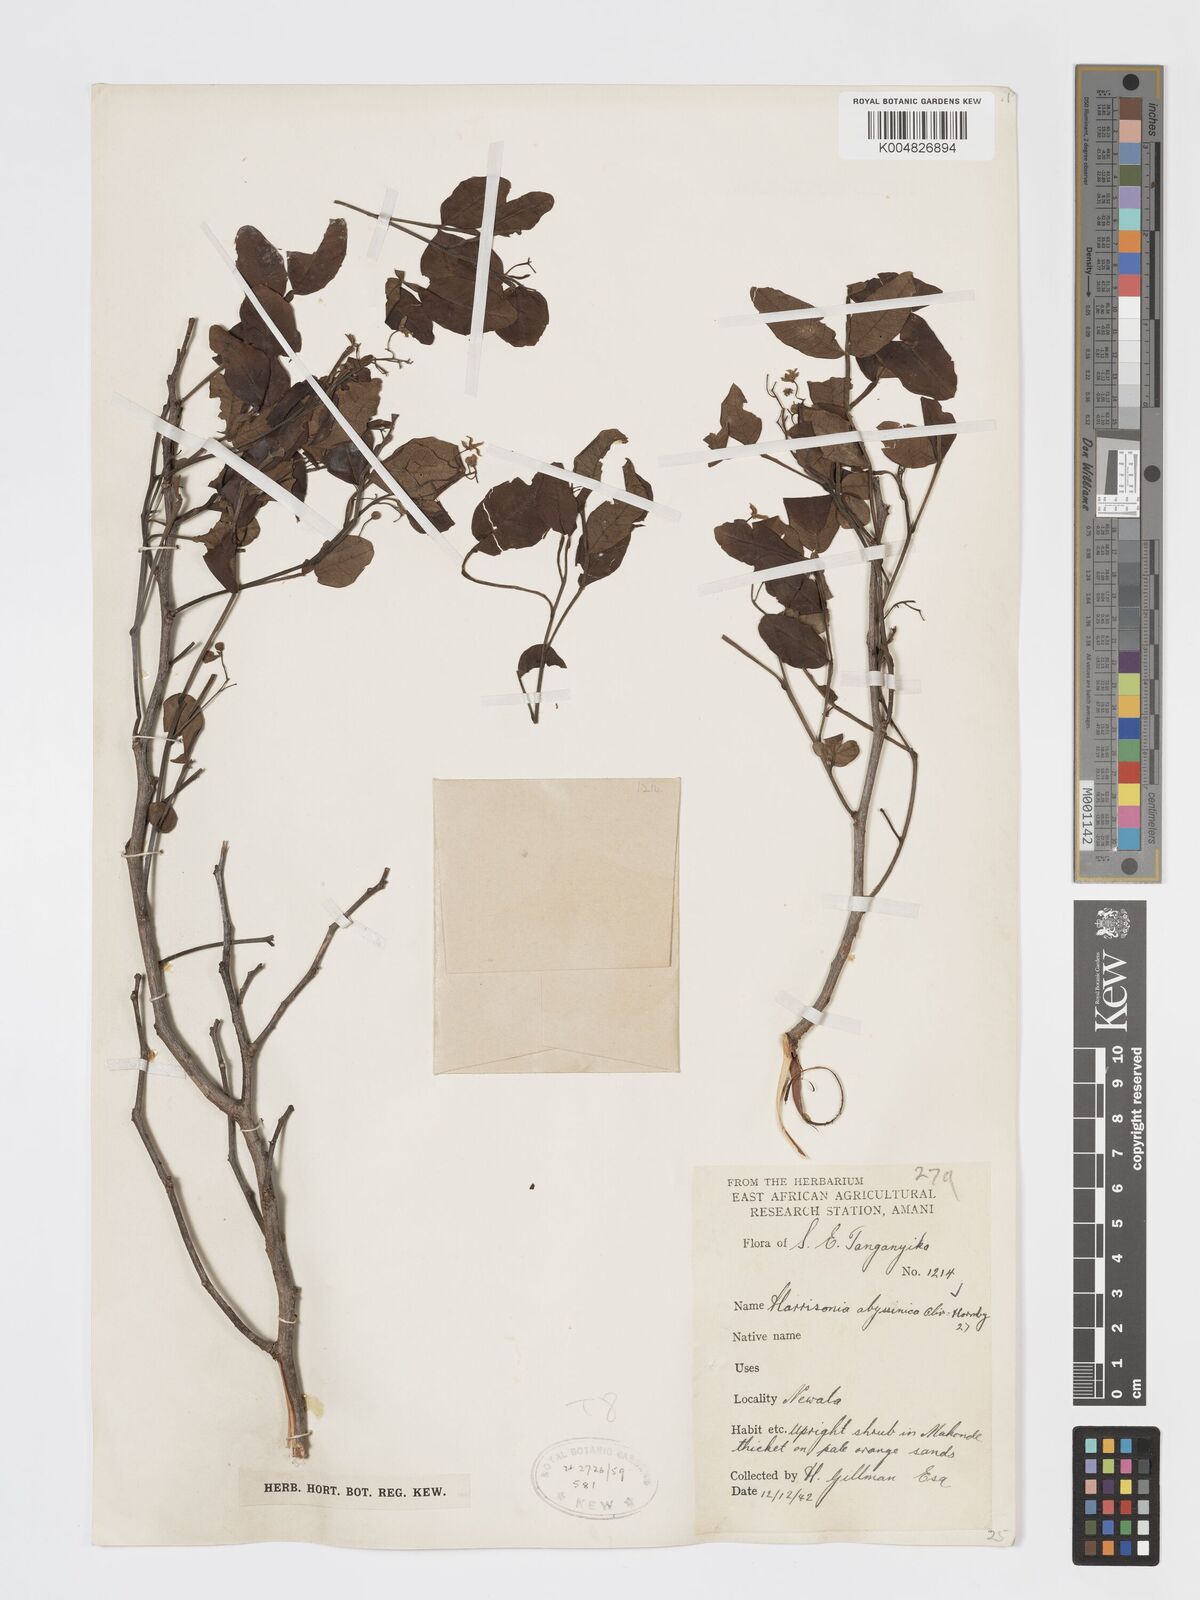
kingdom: Plantae
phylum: Tracheophyta
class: Magnoliopsida
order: Sapindales
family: Rutaceae
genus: Harrisonia
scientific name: Harrisonia abyssinica
